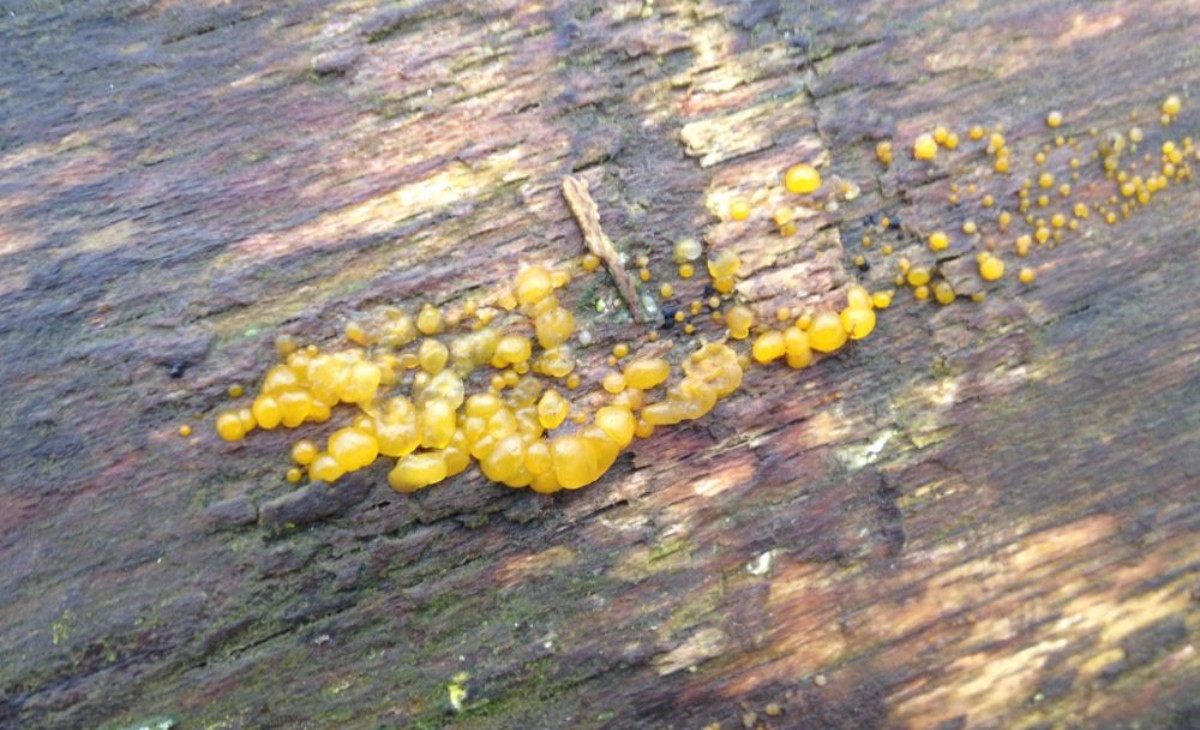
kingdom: Fungi
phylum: Basidiomycota
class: Dacrymycetes
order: Dacrymycetales
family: Dacrymycetaceae
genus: Dacrymyces
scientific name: Dacrymyces lacrymalis
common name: rynket tåresvamp
